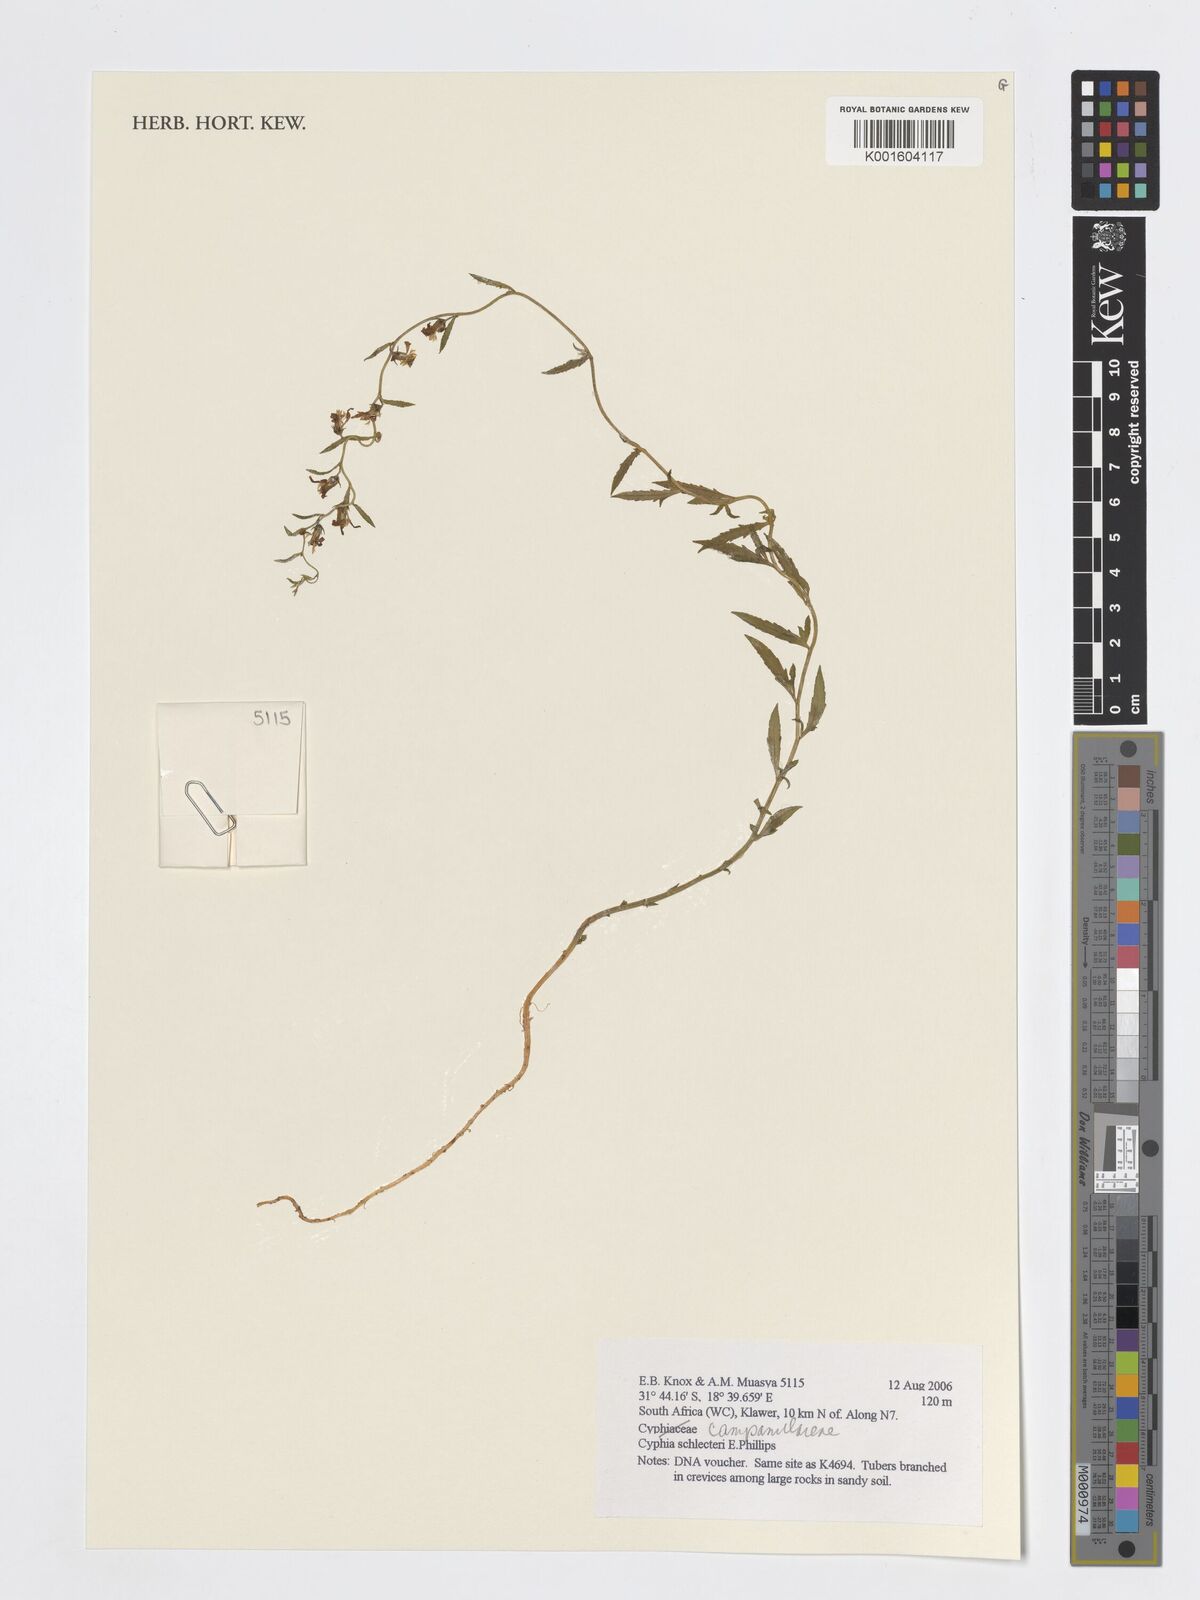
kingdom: Plantae
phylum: Tracheophyta
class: Magnoliopsida
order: Asterales
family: Campanulaceae
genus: Cyphia
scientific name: Cyphia schlechteri
